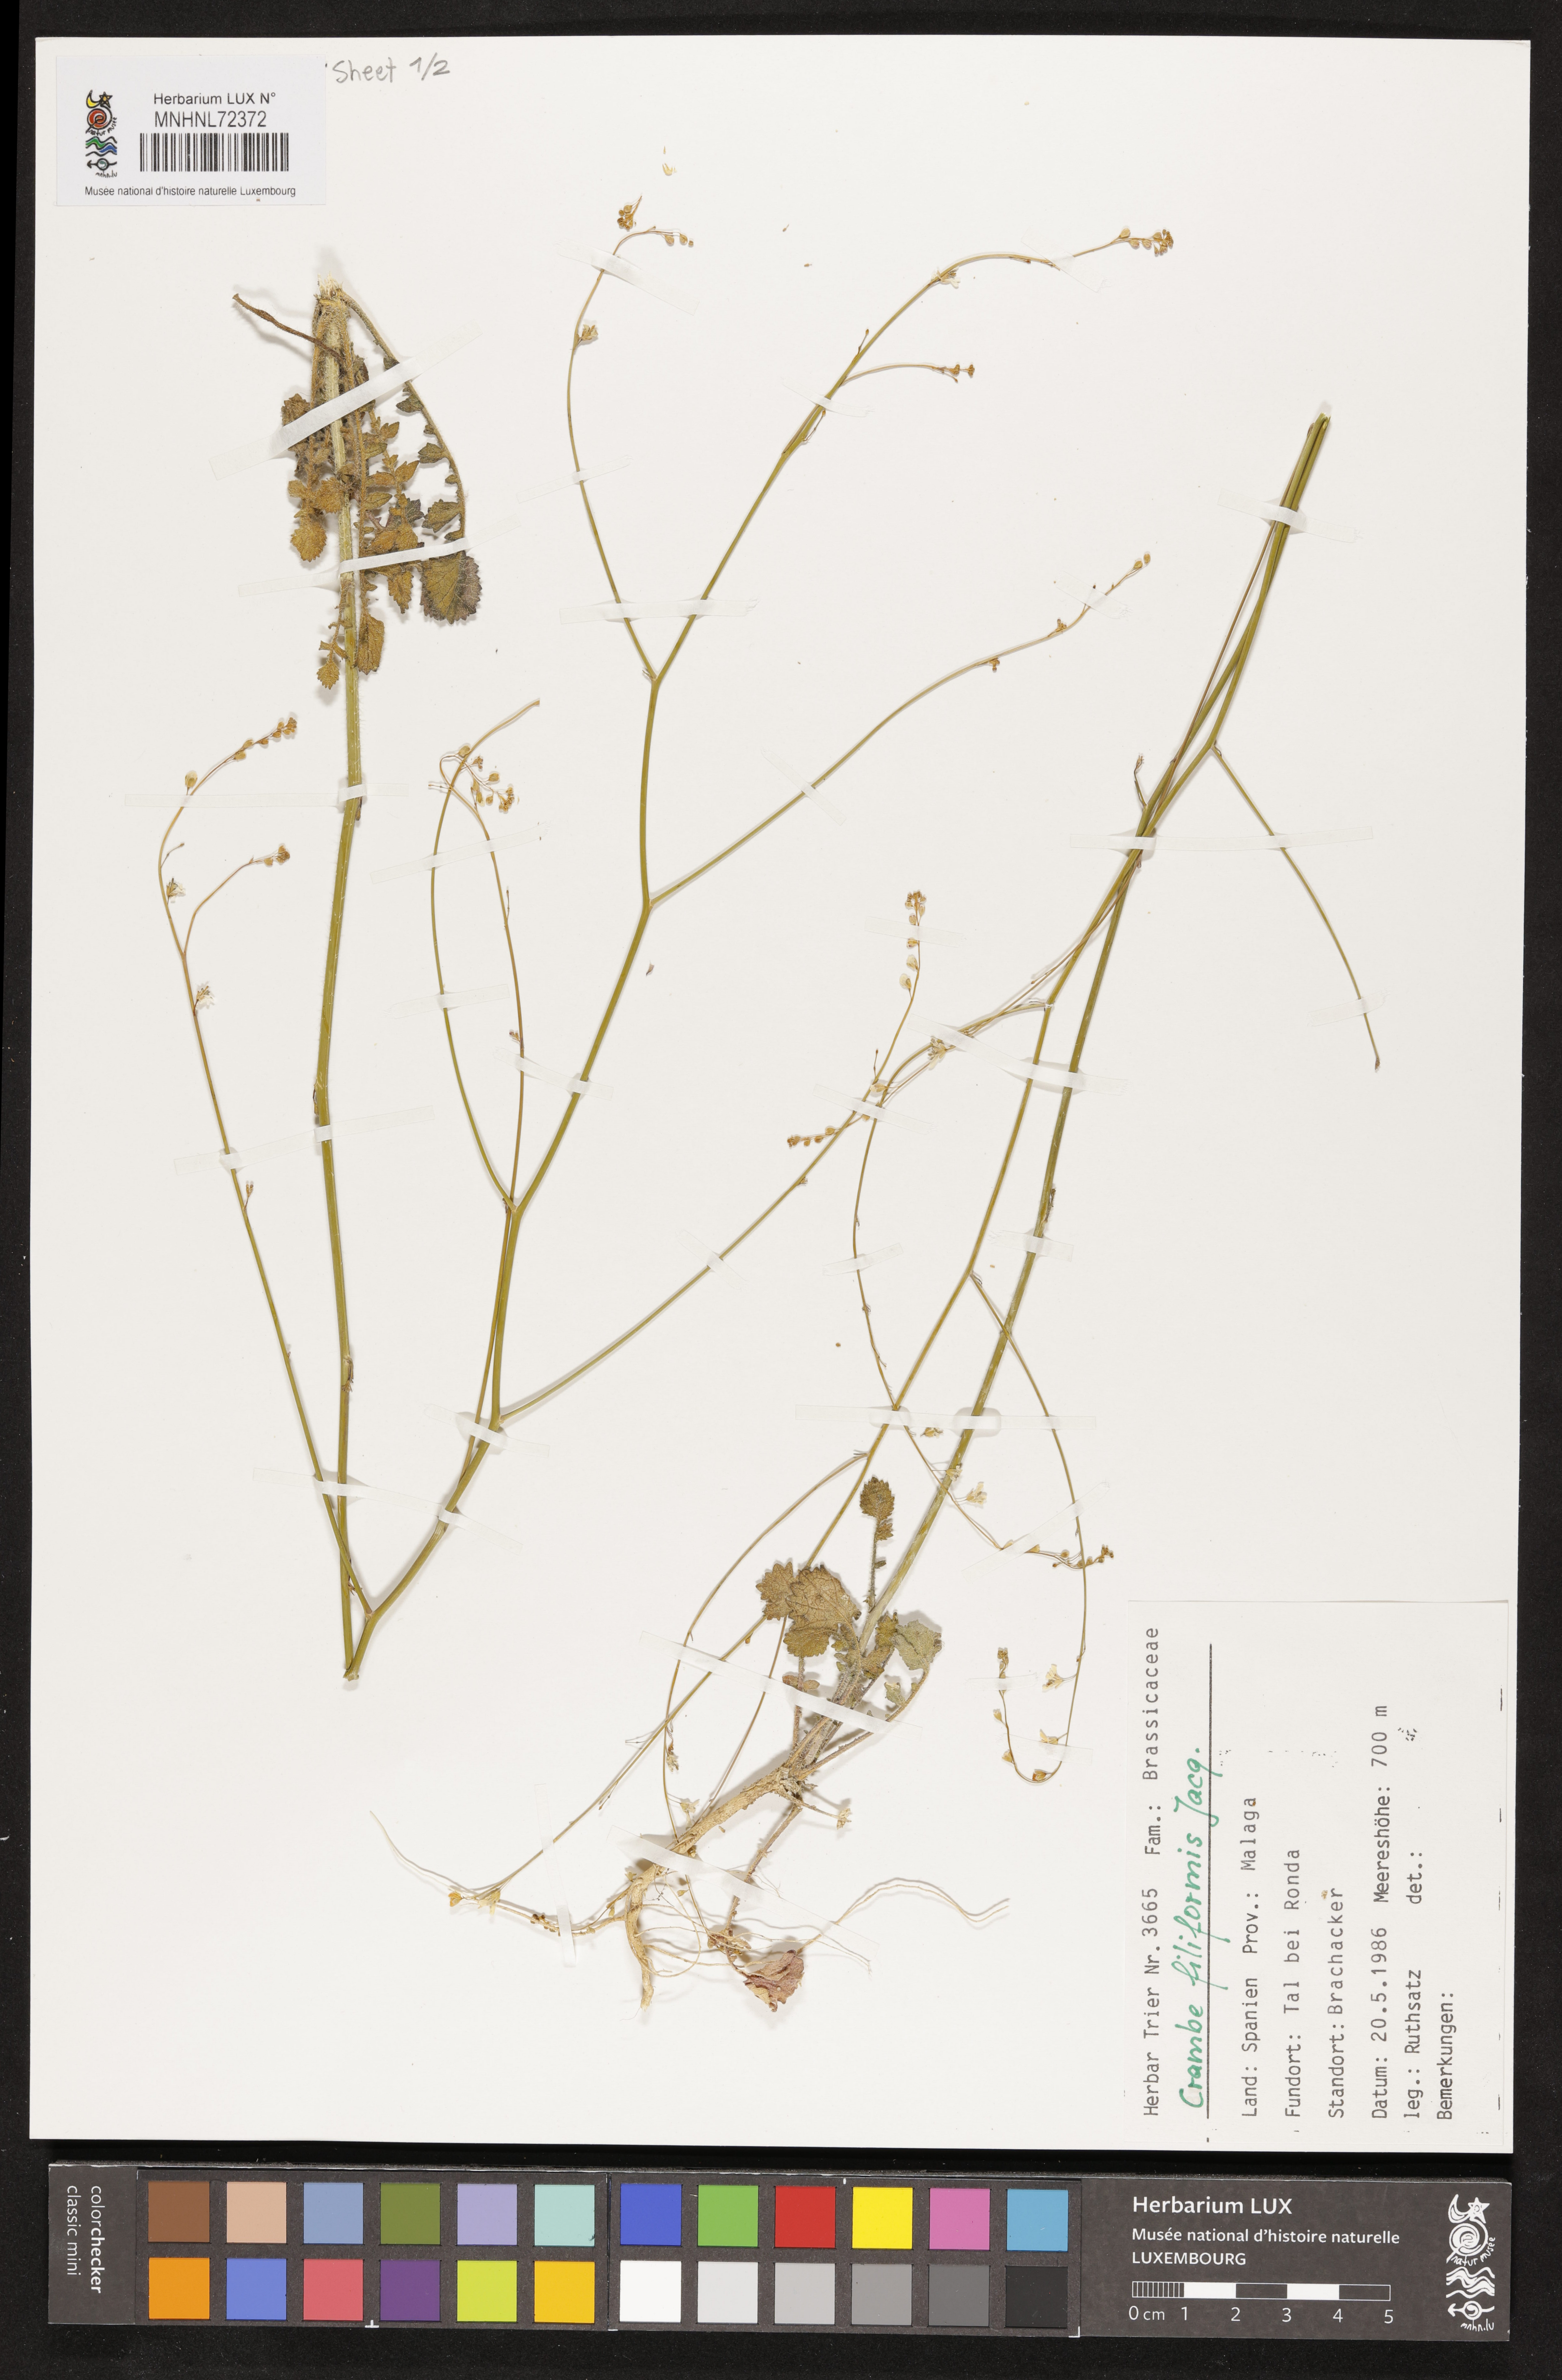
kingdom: Plantae
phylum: Tracheophyta
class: Magnoliopsida
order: Brassicales
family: Brassicaceae
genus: Crambe
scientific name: Crambe filiformis
